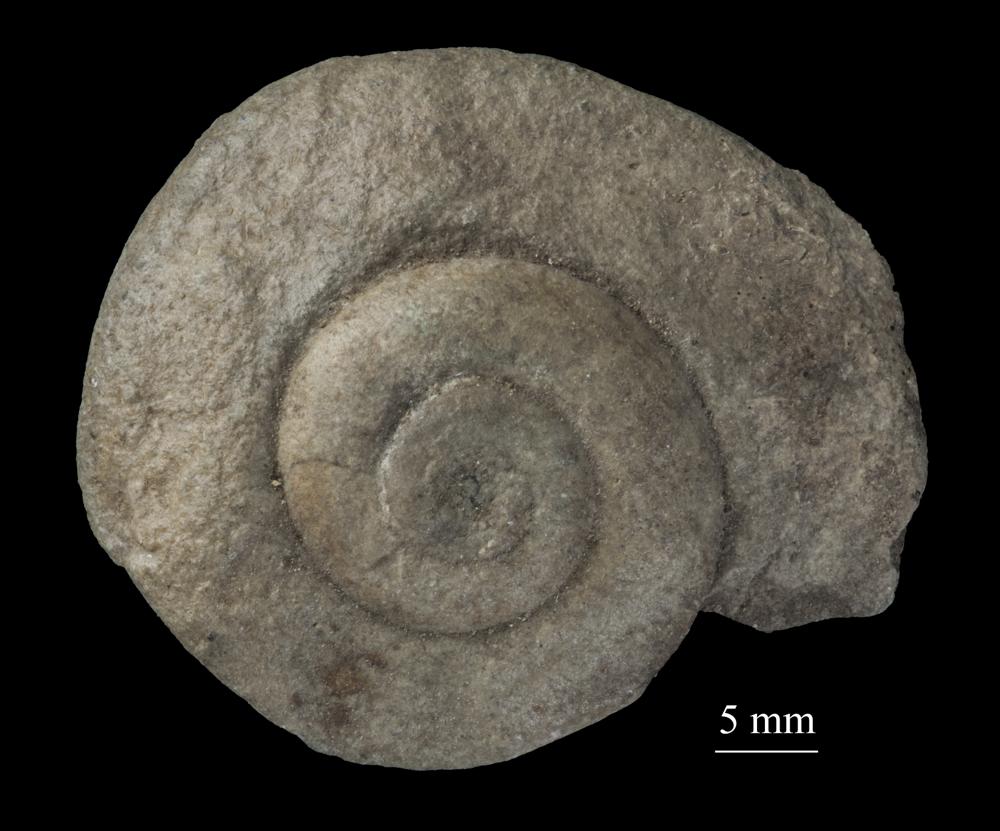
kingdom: Animalia
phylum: Mollusca
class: Gastropoda
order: Neogastropoda
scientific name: Neogastropoda
